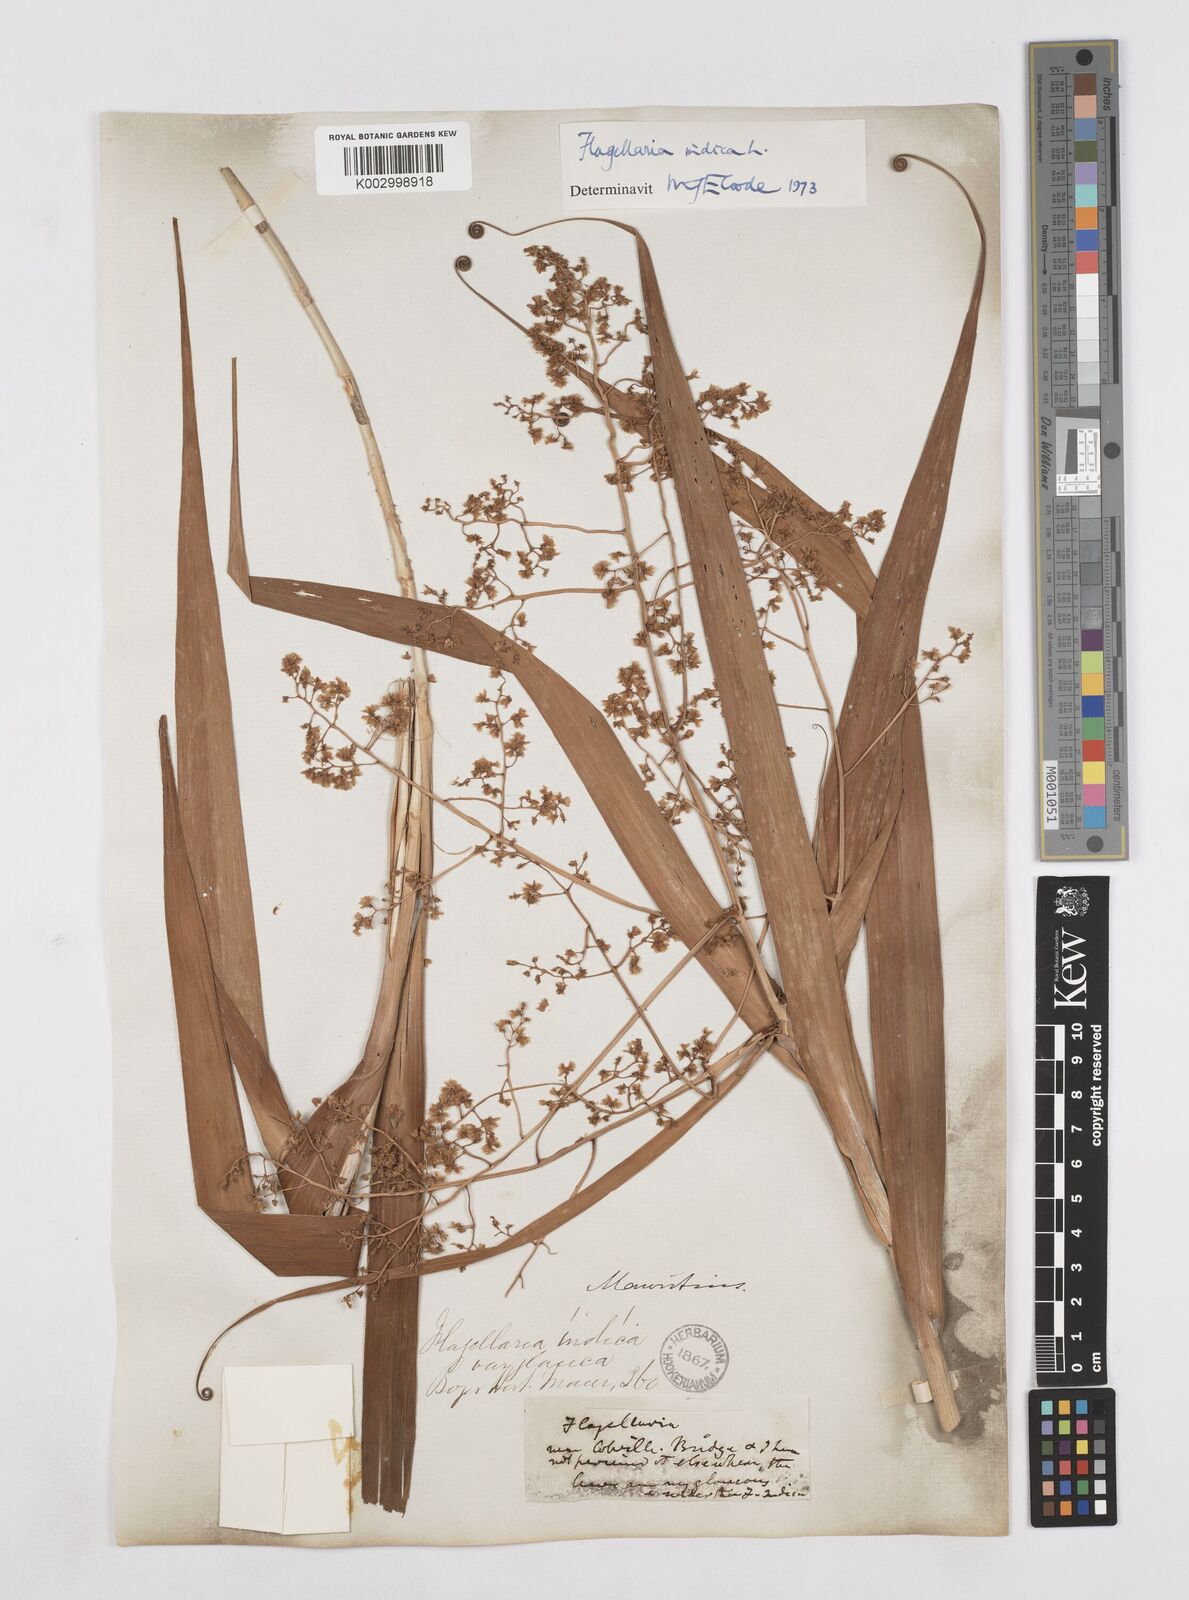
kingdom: Plantae
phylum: Tracheophyta
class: Liliopsida
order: Poales
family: Flagellariaceae
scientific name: Flagellariaceae
